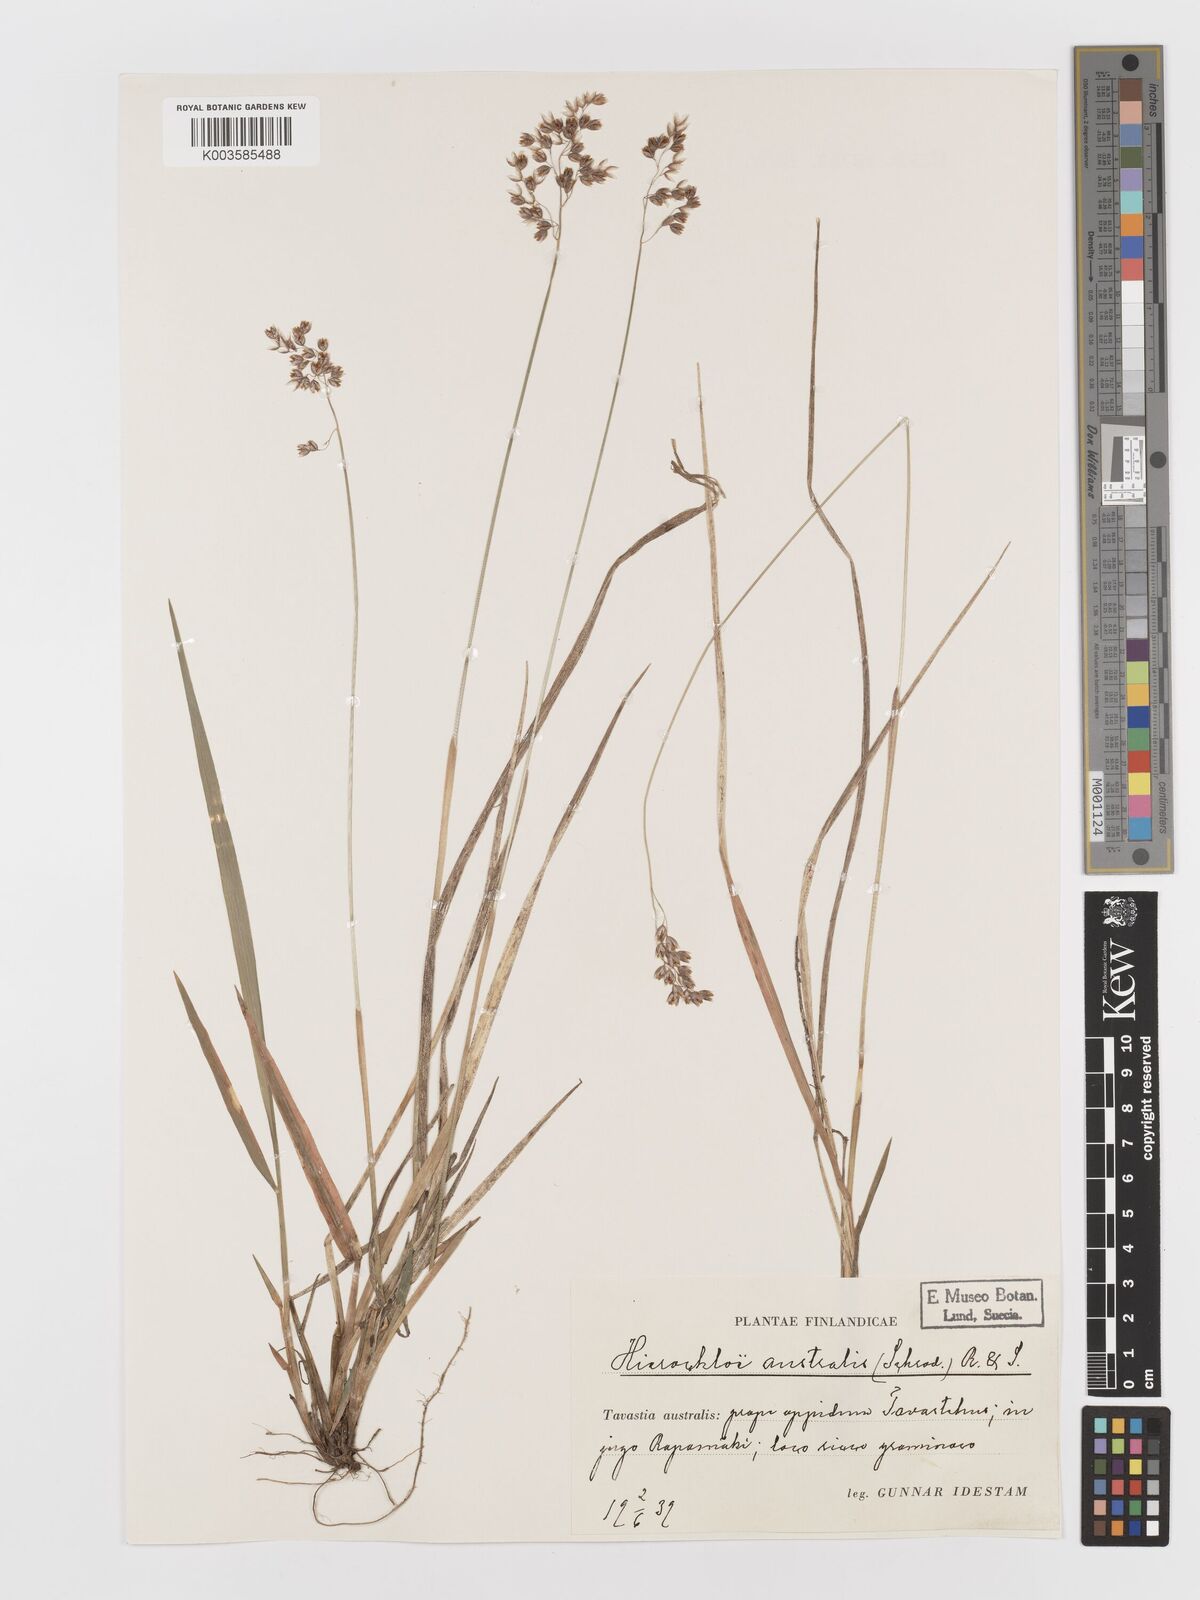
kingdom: Plantae
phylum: Tracheophyta
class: Liliopsida
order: Poales
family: Poaceae
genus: Anthoxanthum
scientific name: Anthoxanthum australe
